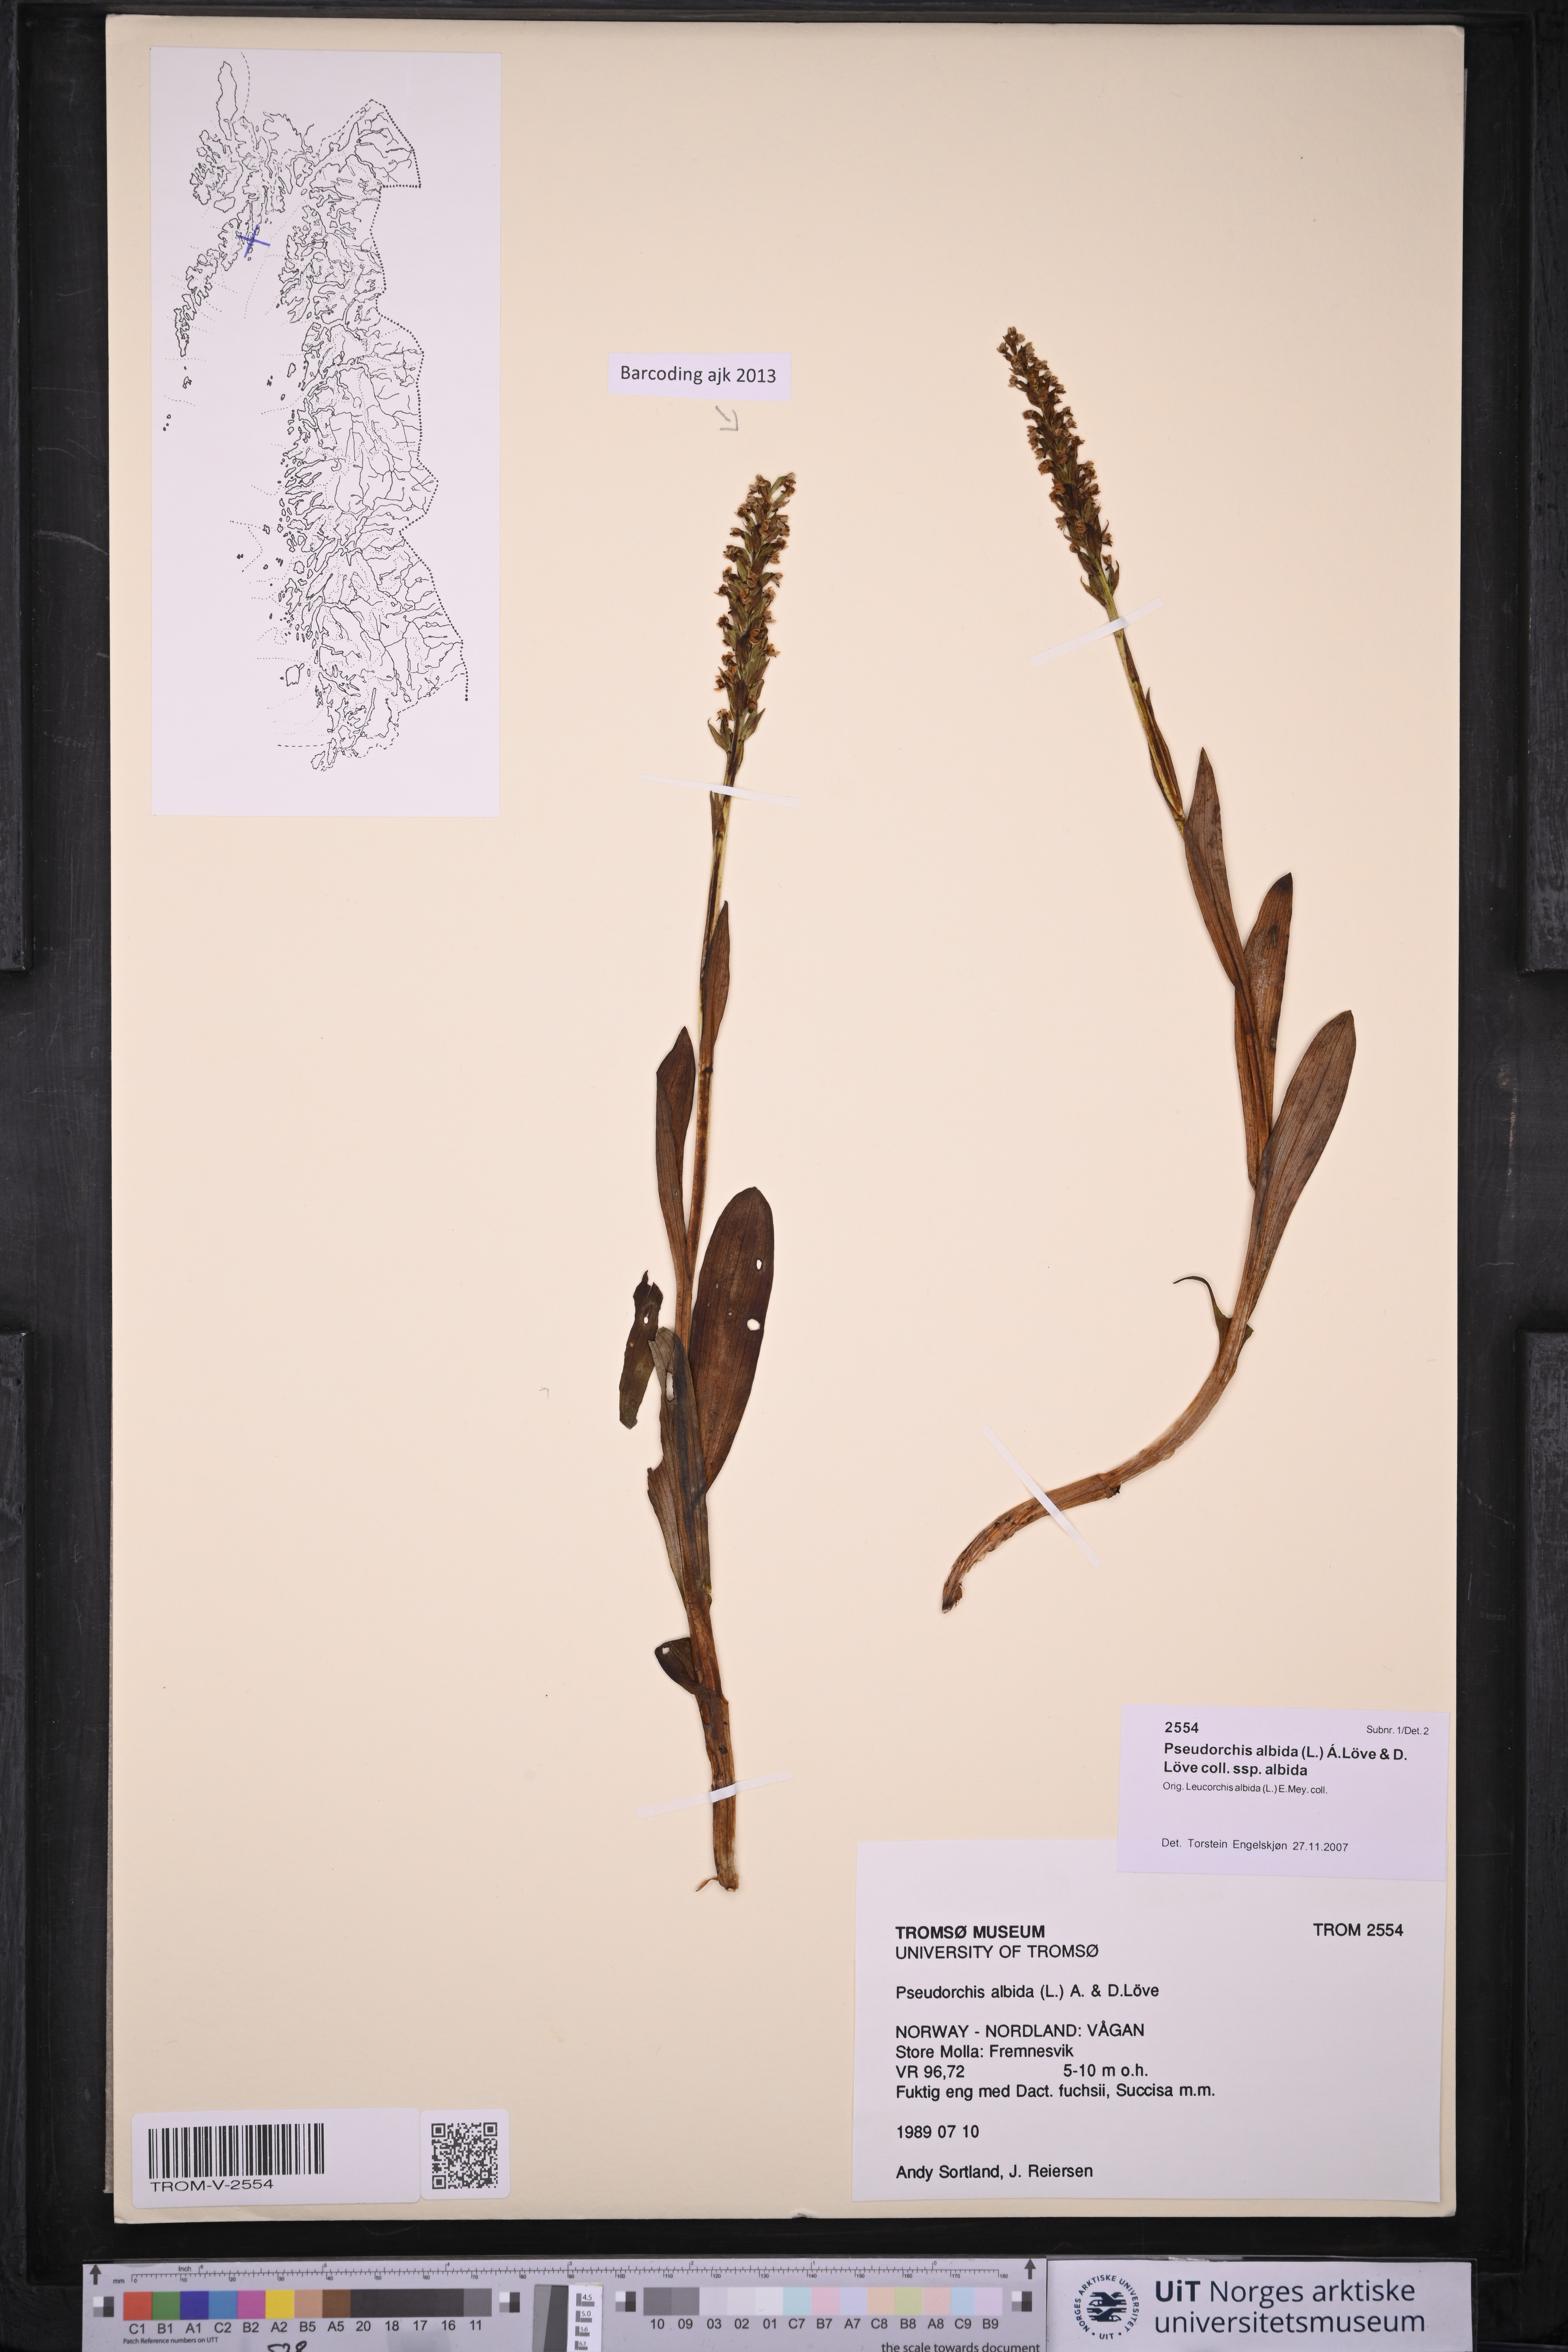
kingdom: Plantae
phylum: Tracheophyta
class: Liliopsida
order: Asparagales
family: Orchidaceae
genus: Pseudorchis
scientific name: Pseudorchis albida
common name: Small-white orchid
